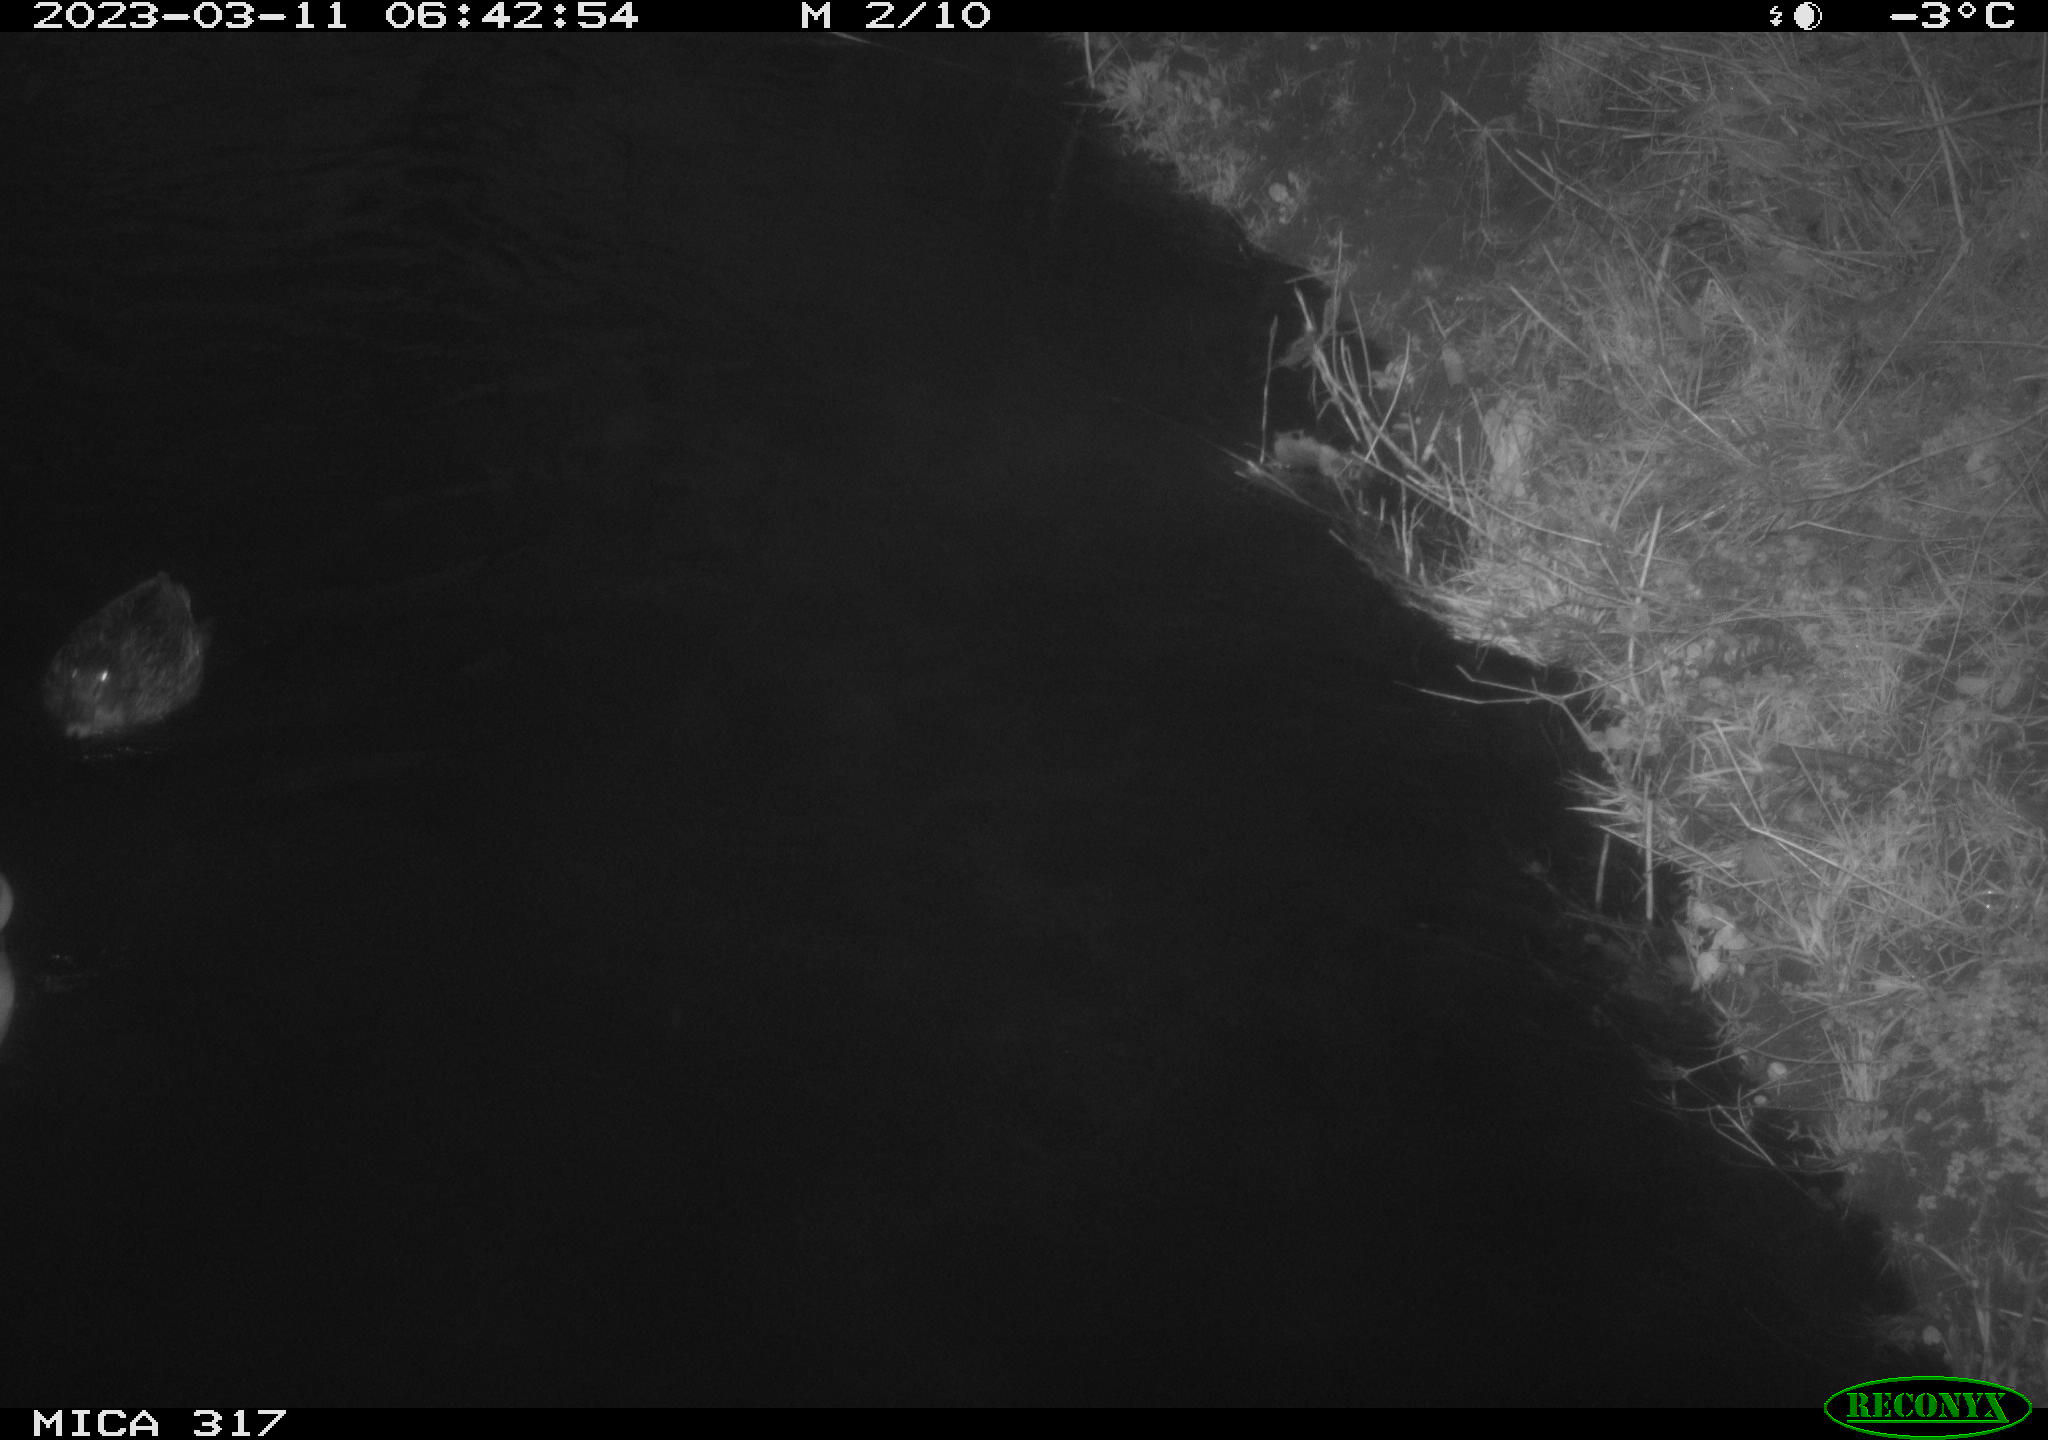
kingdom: Animalia
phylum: Chordata
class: Aves
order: Anseriformes
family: Anatidae
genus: Anas
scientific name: Anas
